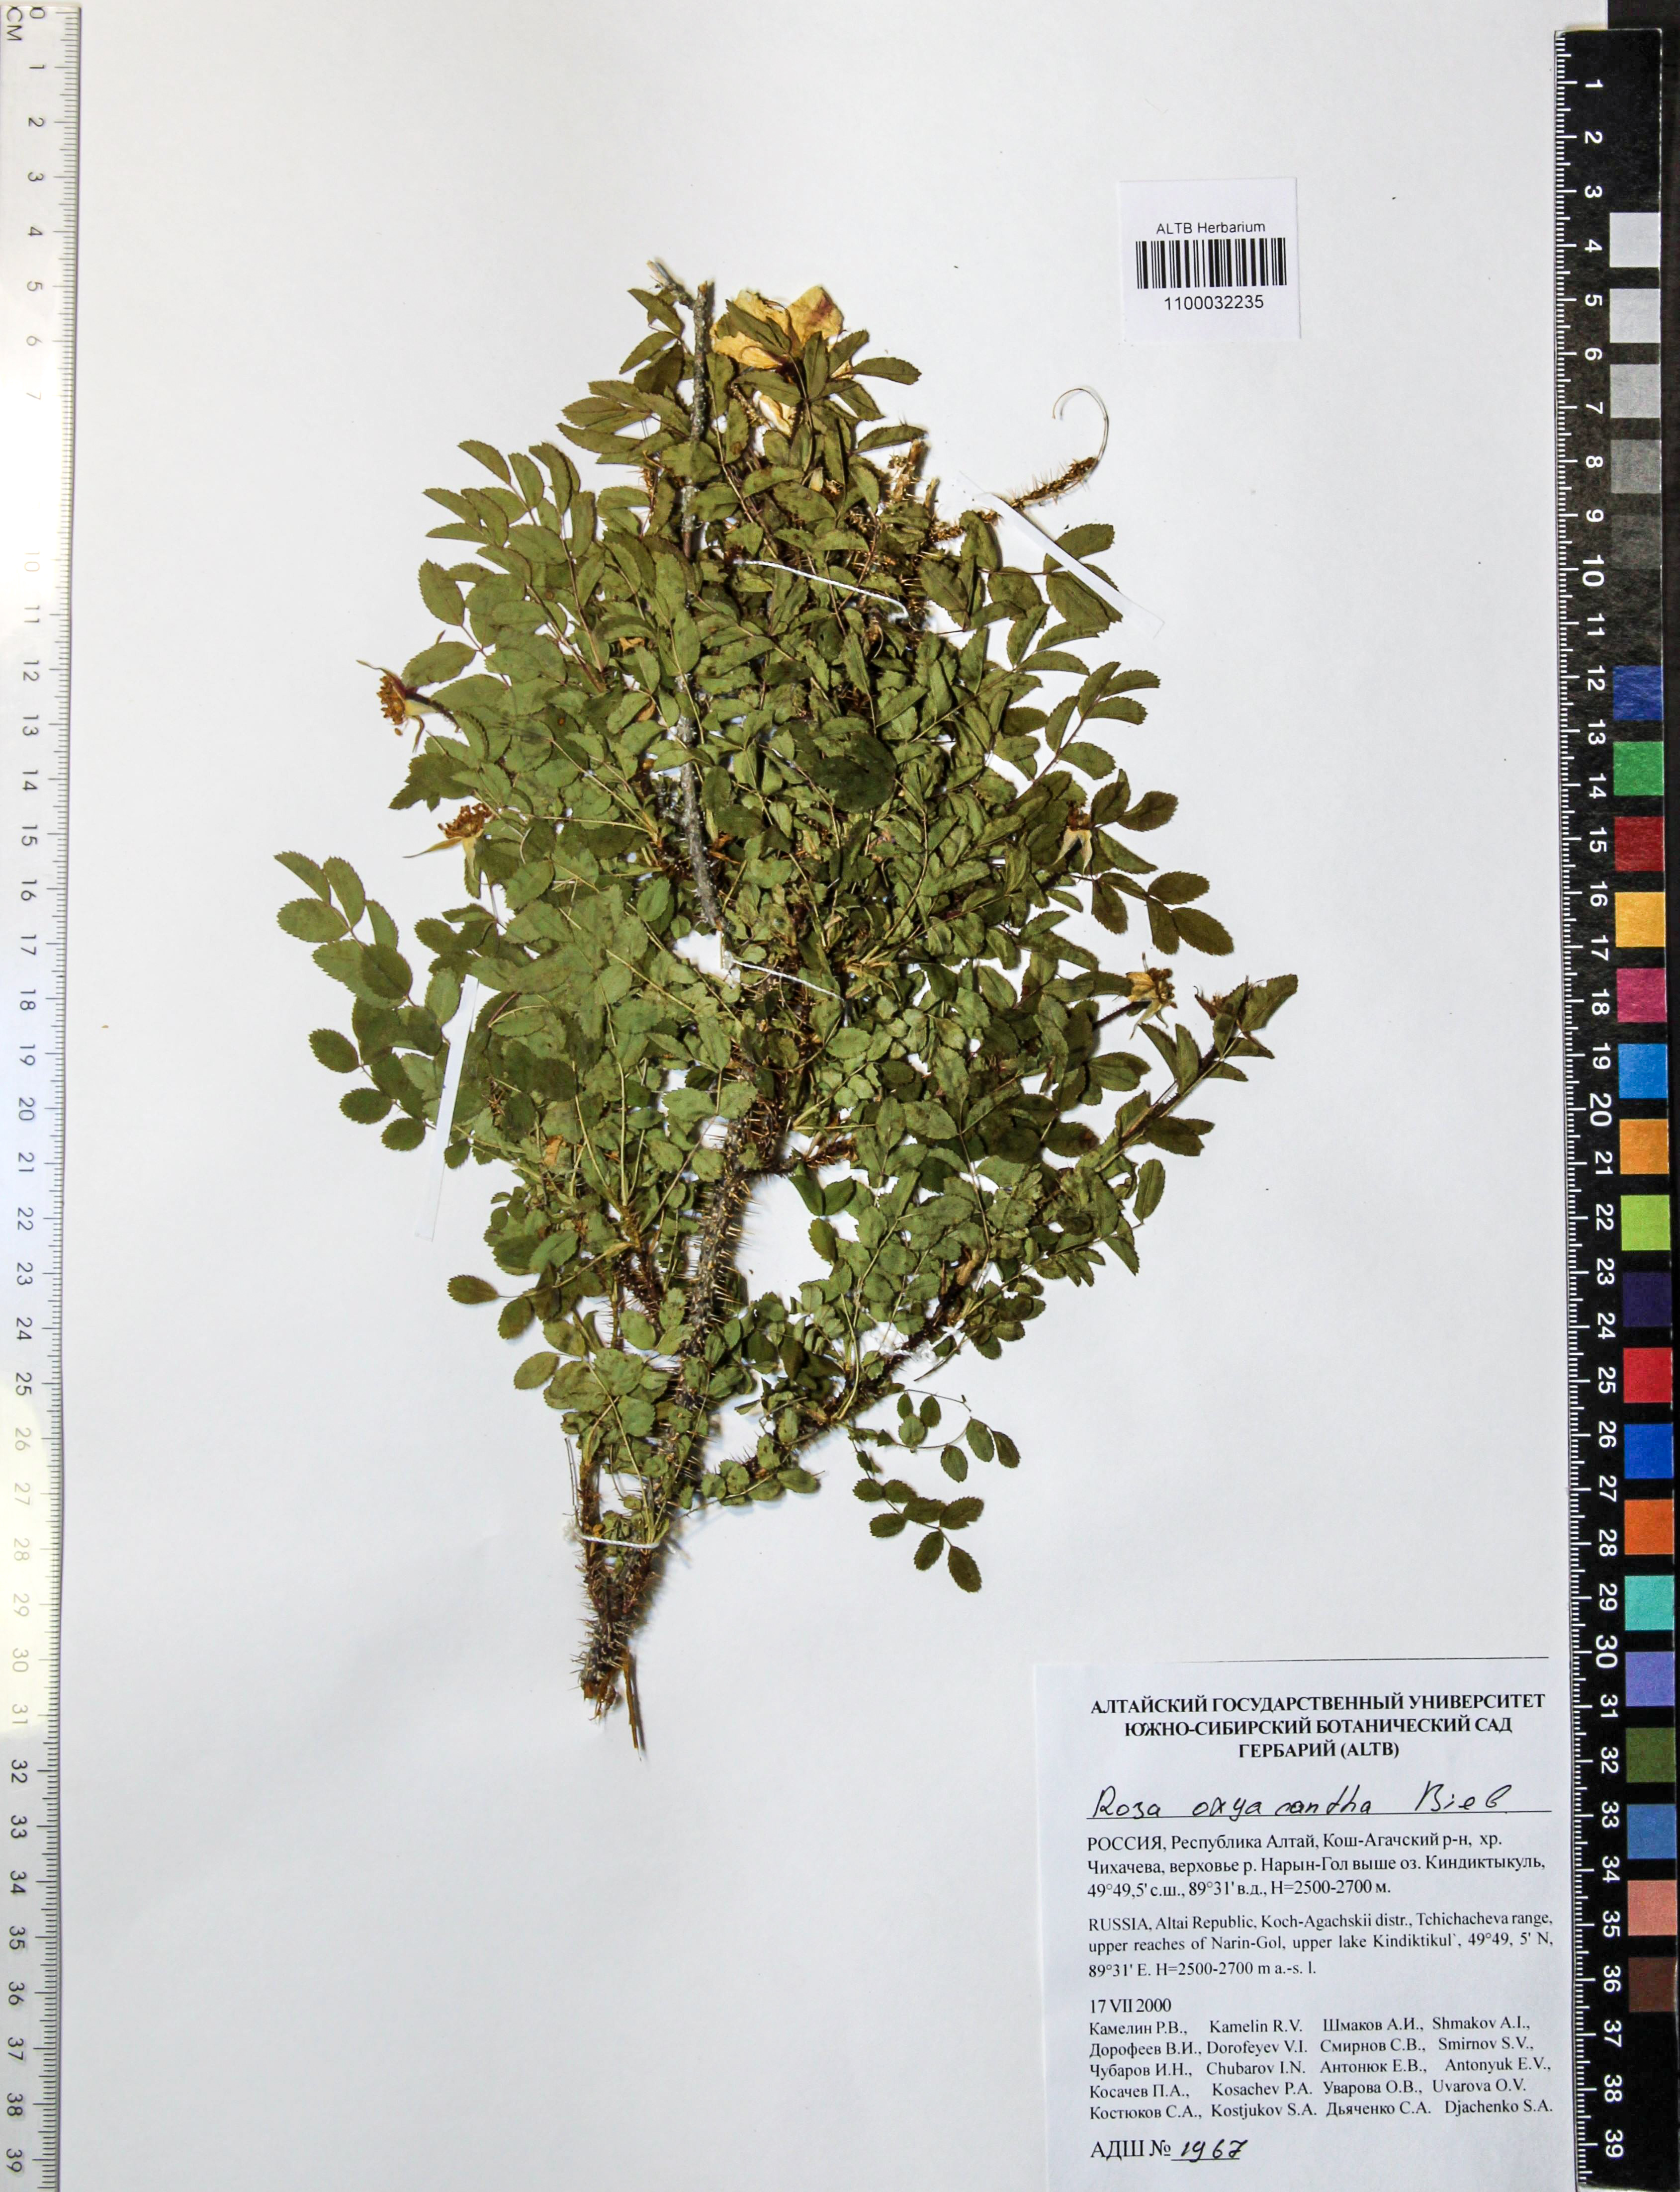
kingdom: Plantae
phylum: Tracheophyta
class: Magnoliopsida
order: Rosales
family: Rosaceae
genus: Rosa
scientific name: Rosa oxyacantha
